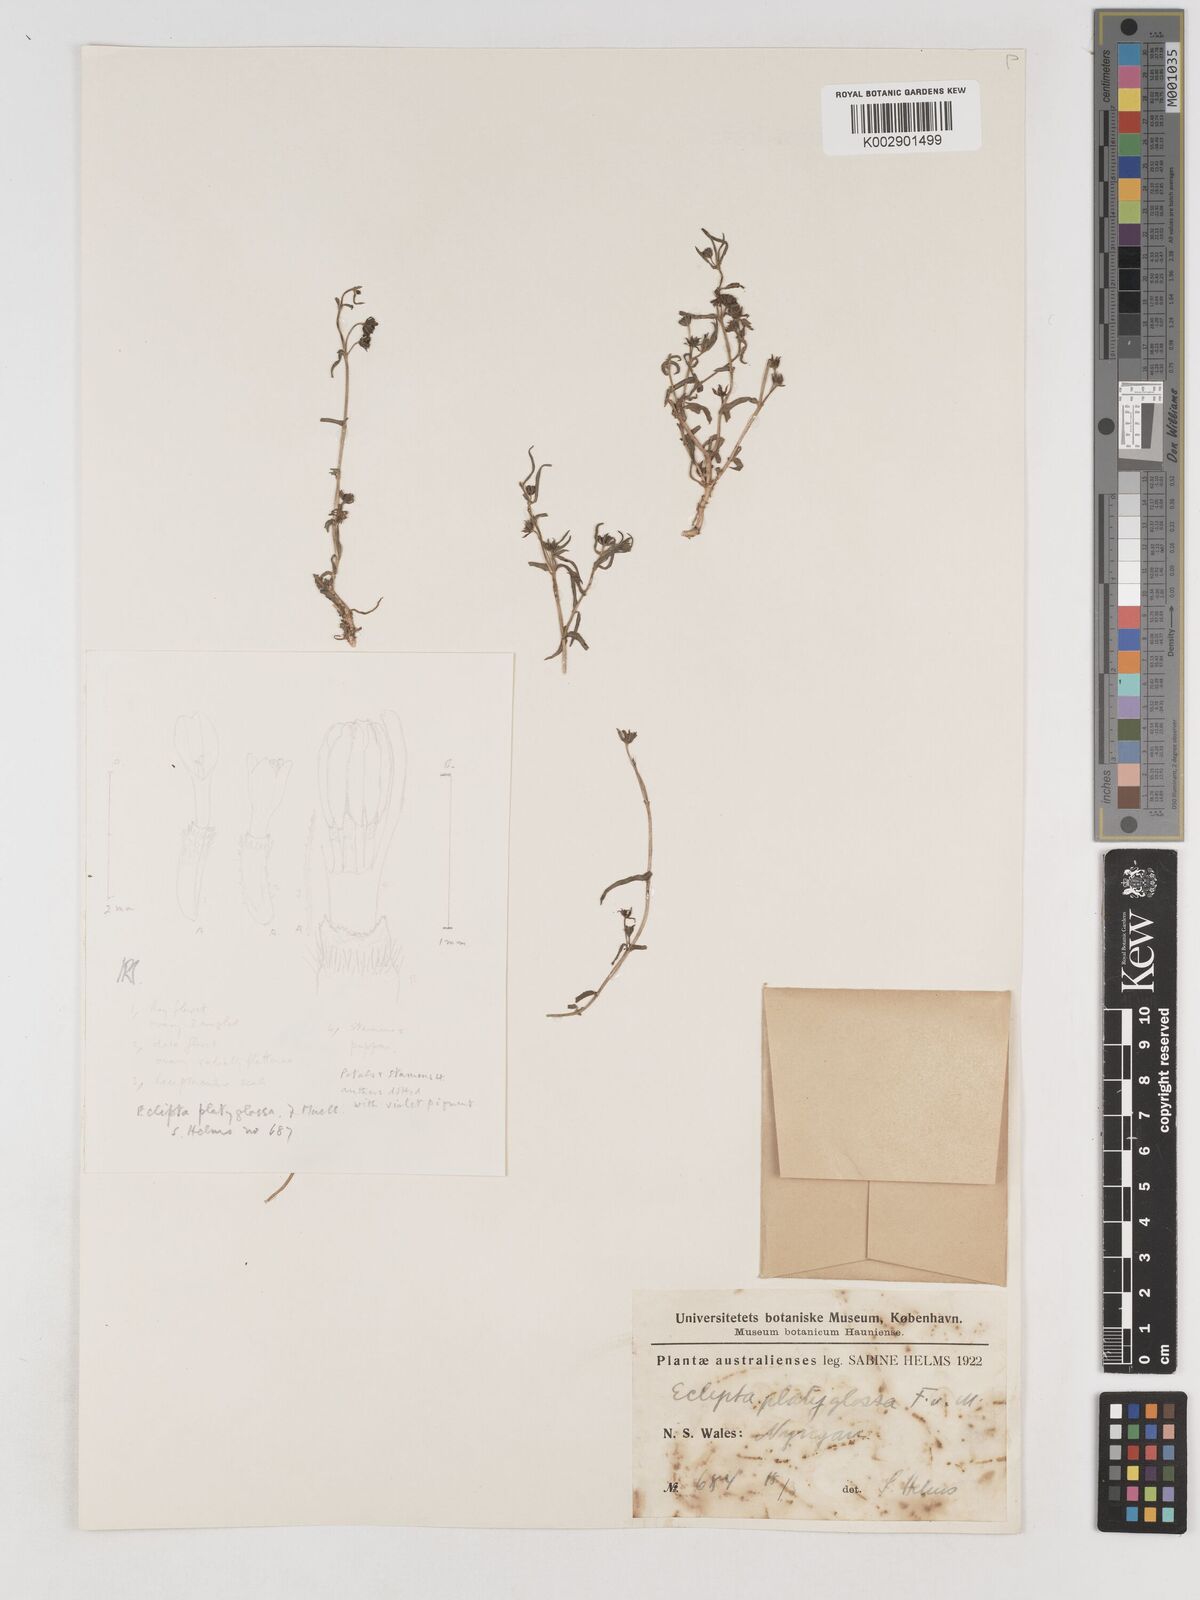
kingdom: Plantae
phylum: Tracheophyta
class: Magnoliopsida
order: Asterales
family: Asteraceae
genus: Eclipta
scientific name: Eclipta platyglossa
